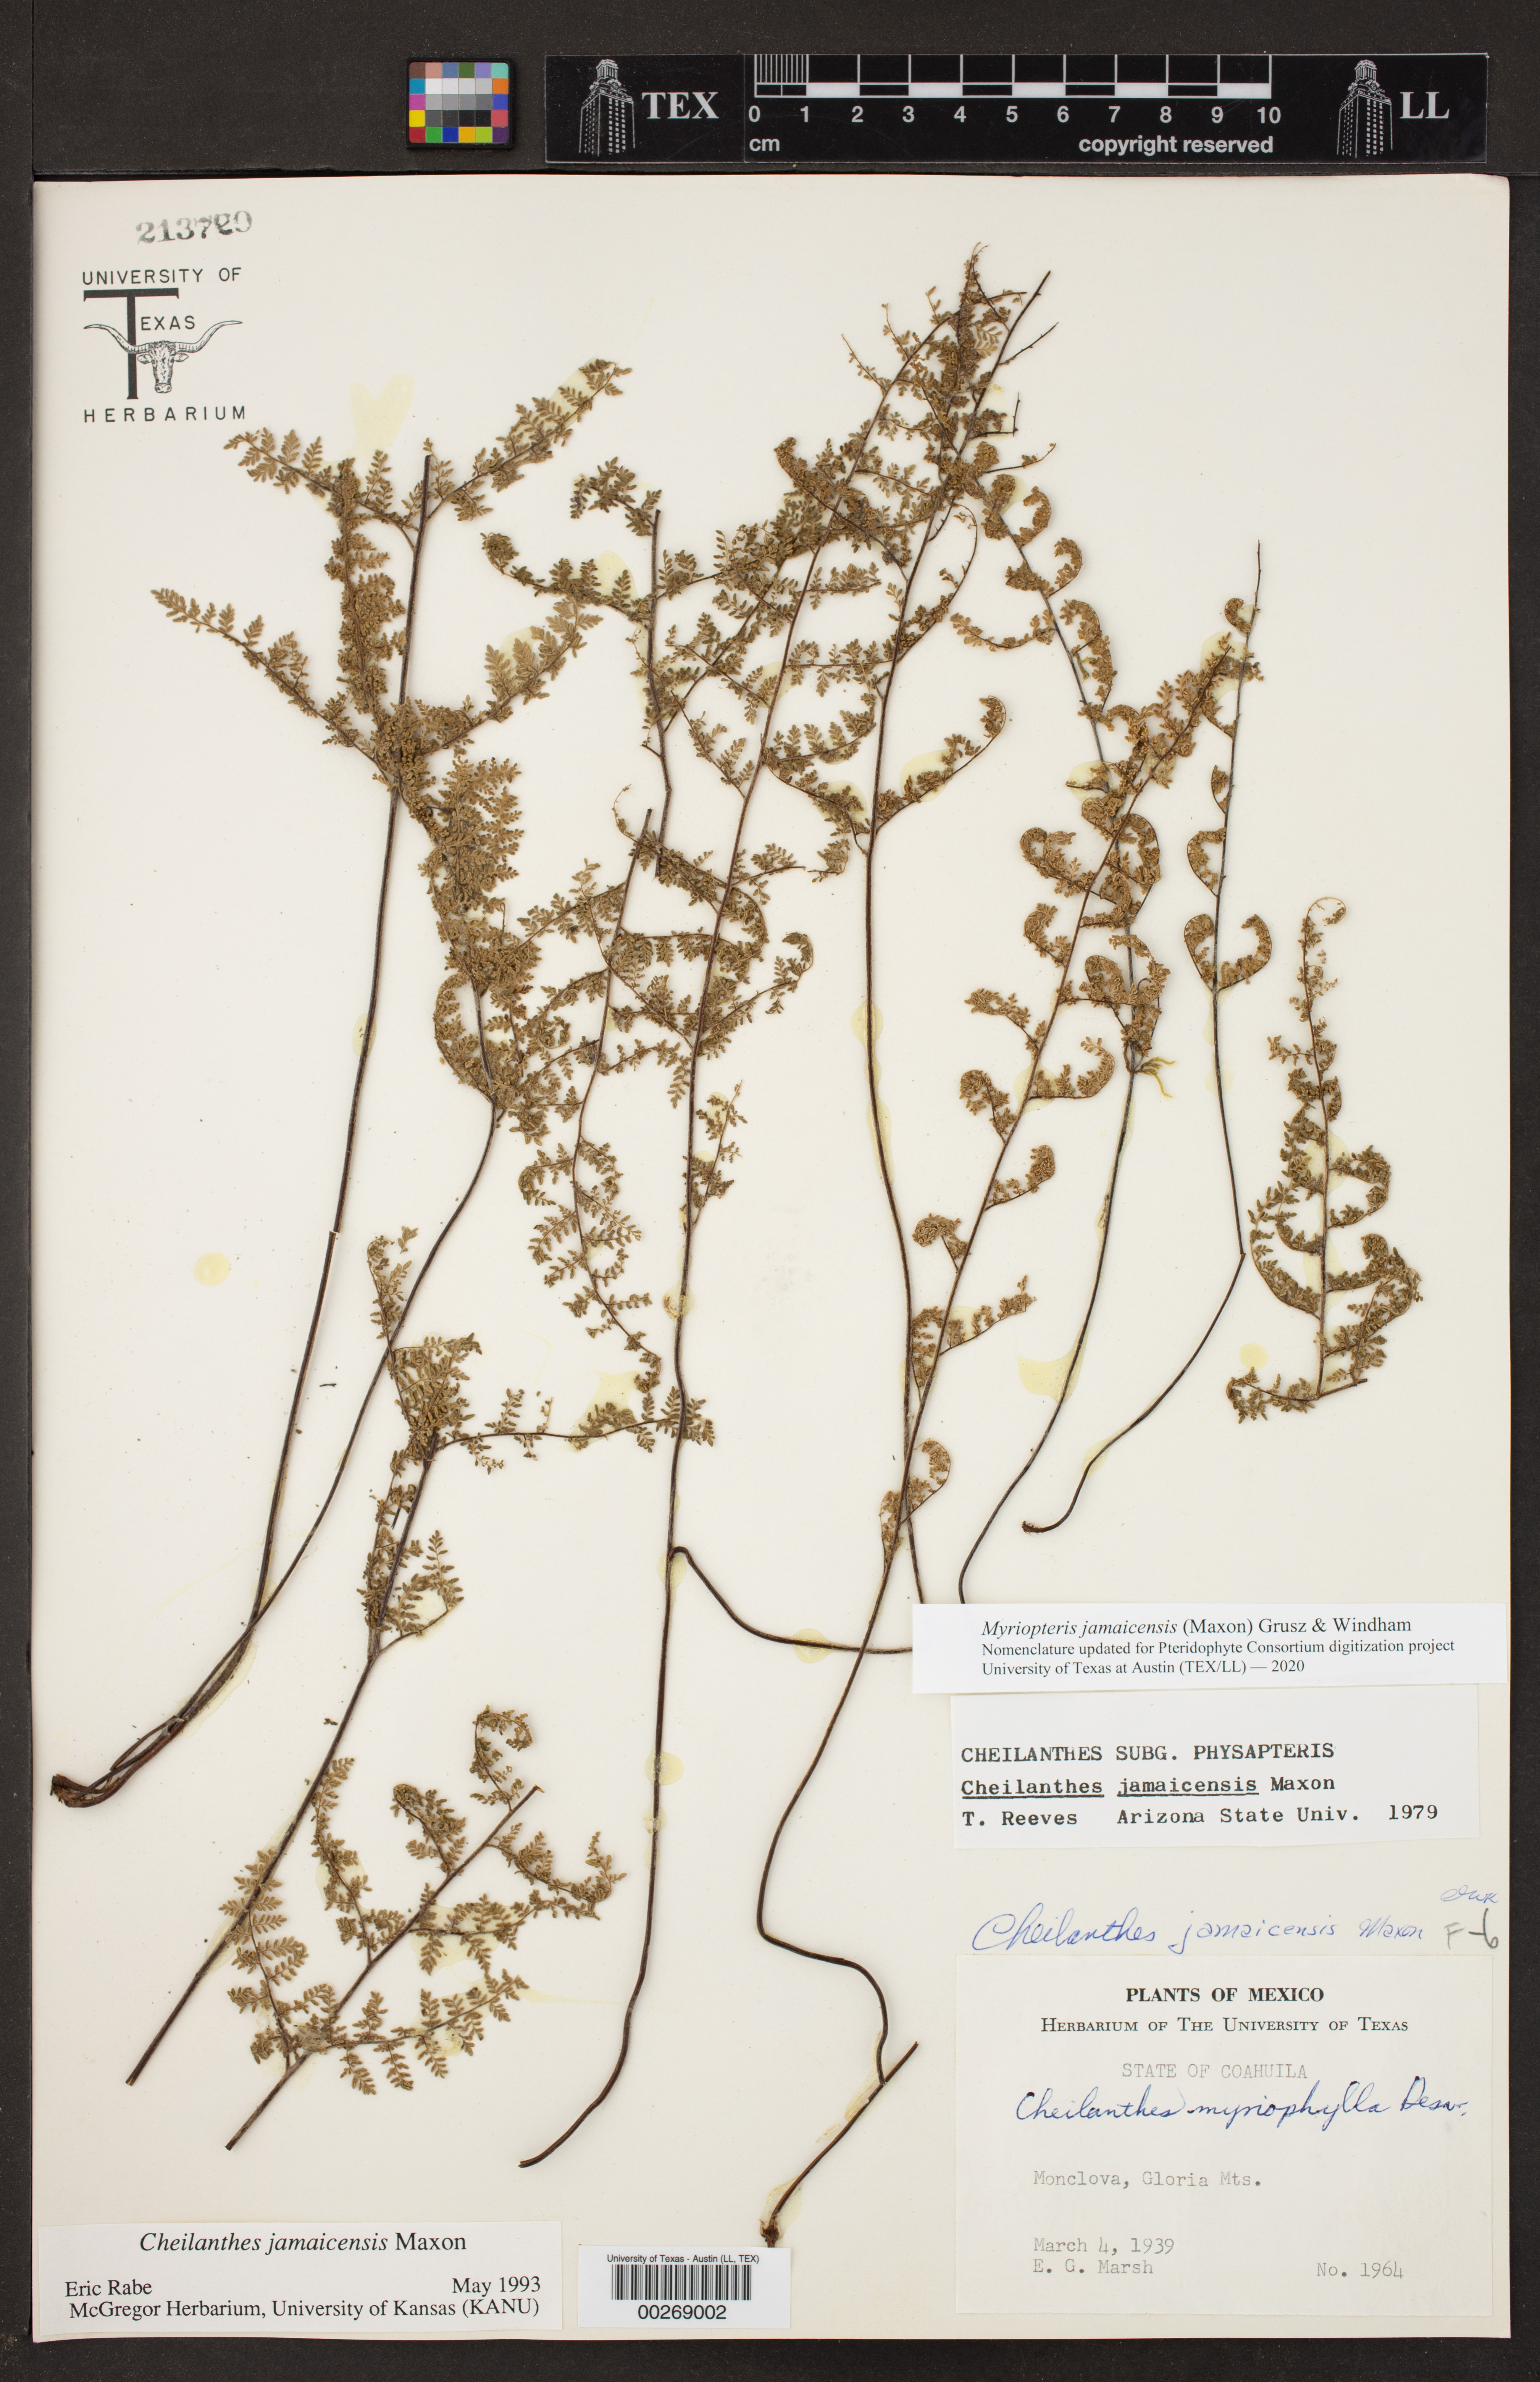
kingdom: Plantae
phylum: Tracheophyta
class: Polypodiopsida
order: Polypodiales
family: Pteridaceae
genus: Myriopteris
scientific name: Myriopteris jamaicensis
